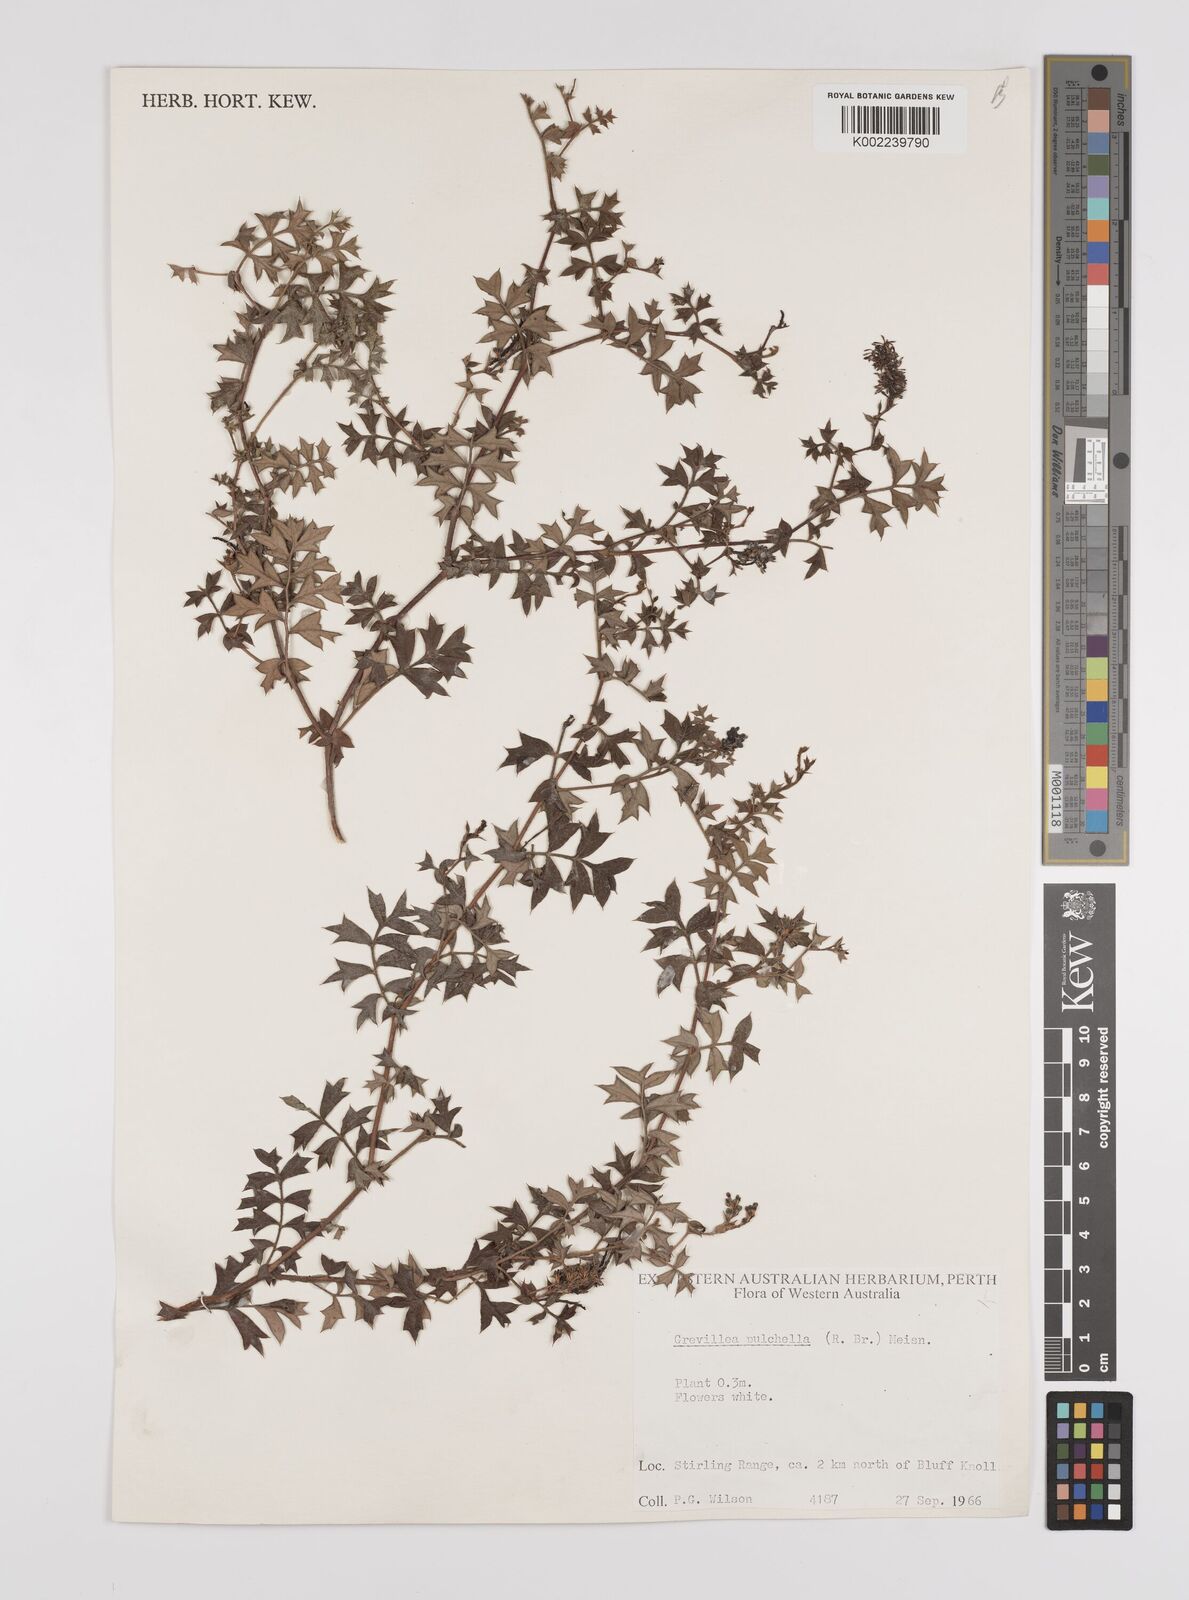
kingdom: Plantae
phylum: Tracheophyta
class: Magnoliopsida
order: Proteales
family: Proteaceae
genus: Grevillea
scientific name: Grevillea pulchella
